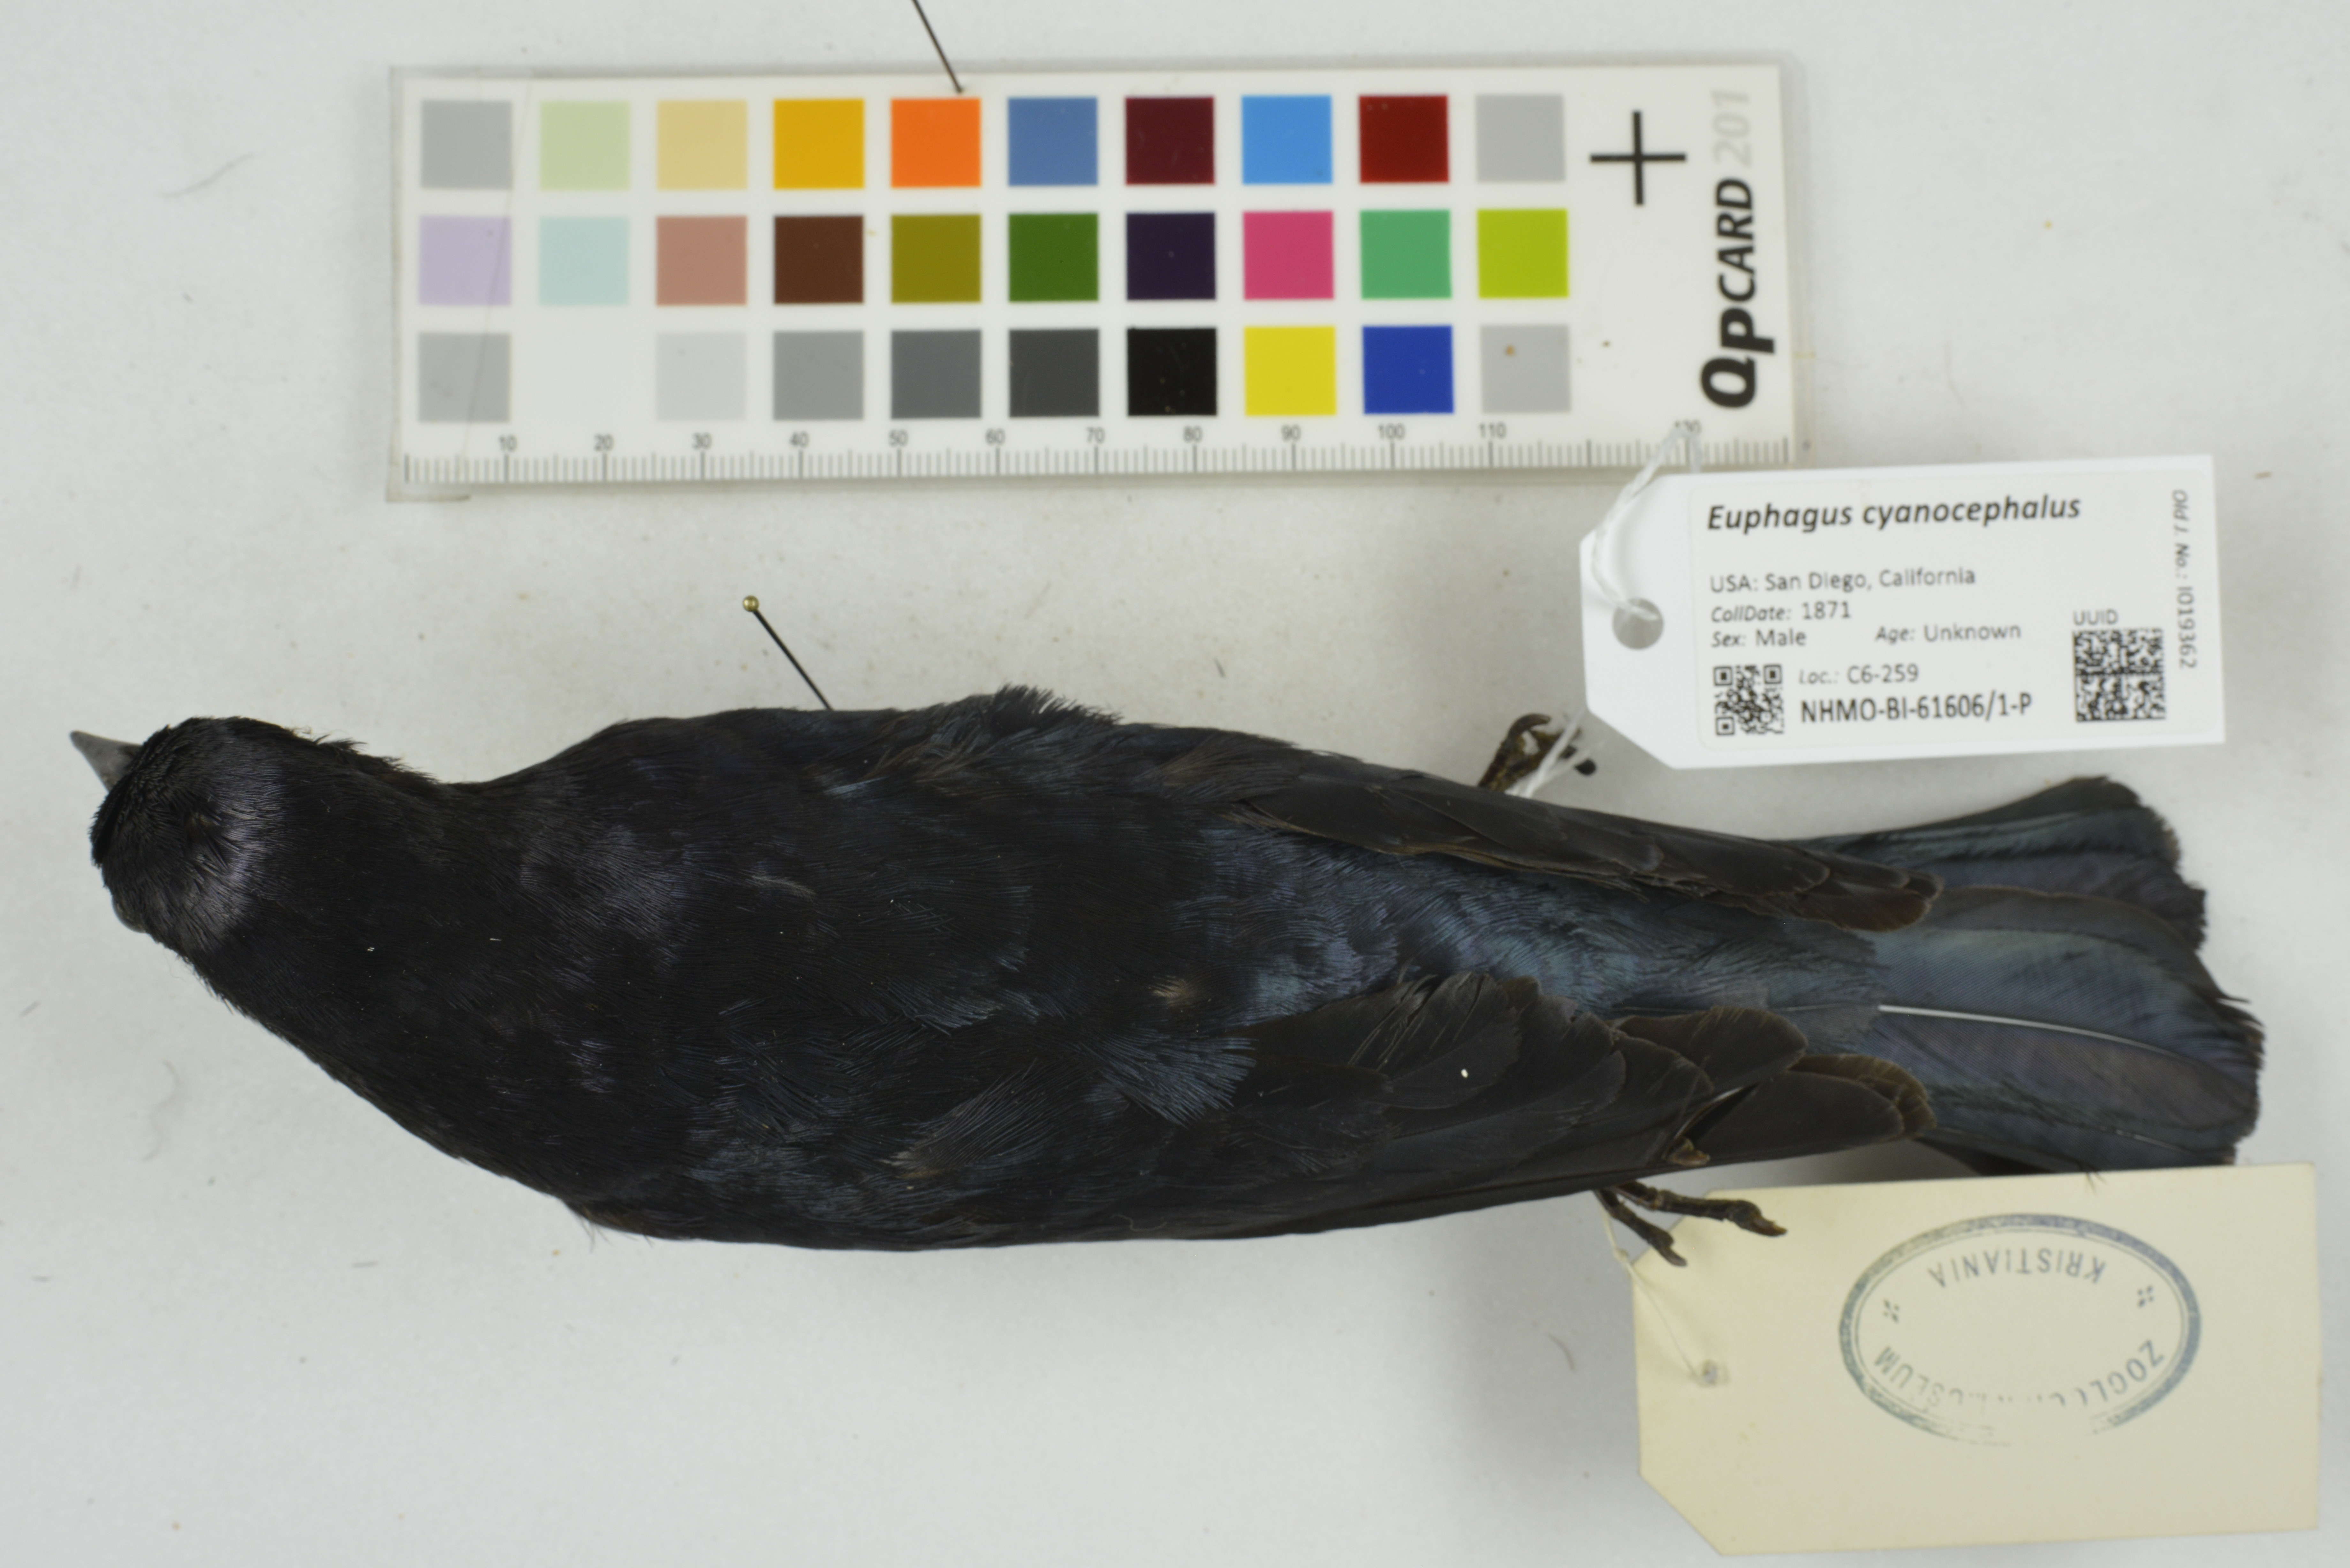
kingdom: Animalia
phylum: Chordata
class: Aves
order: Passeriformes
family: Icteridae
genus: Euphagus
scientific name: Euphagus cyanocephalus
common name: Brewer's blackbird
